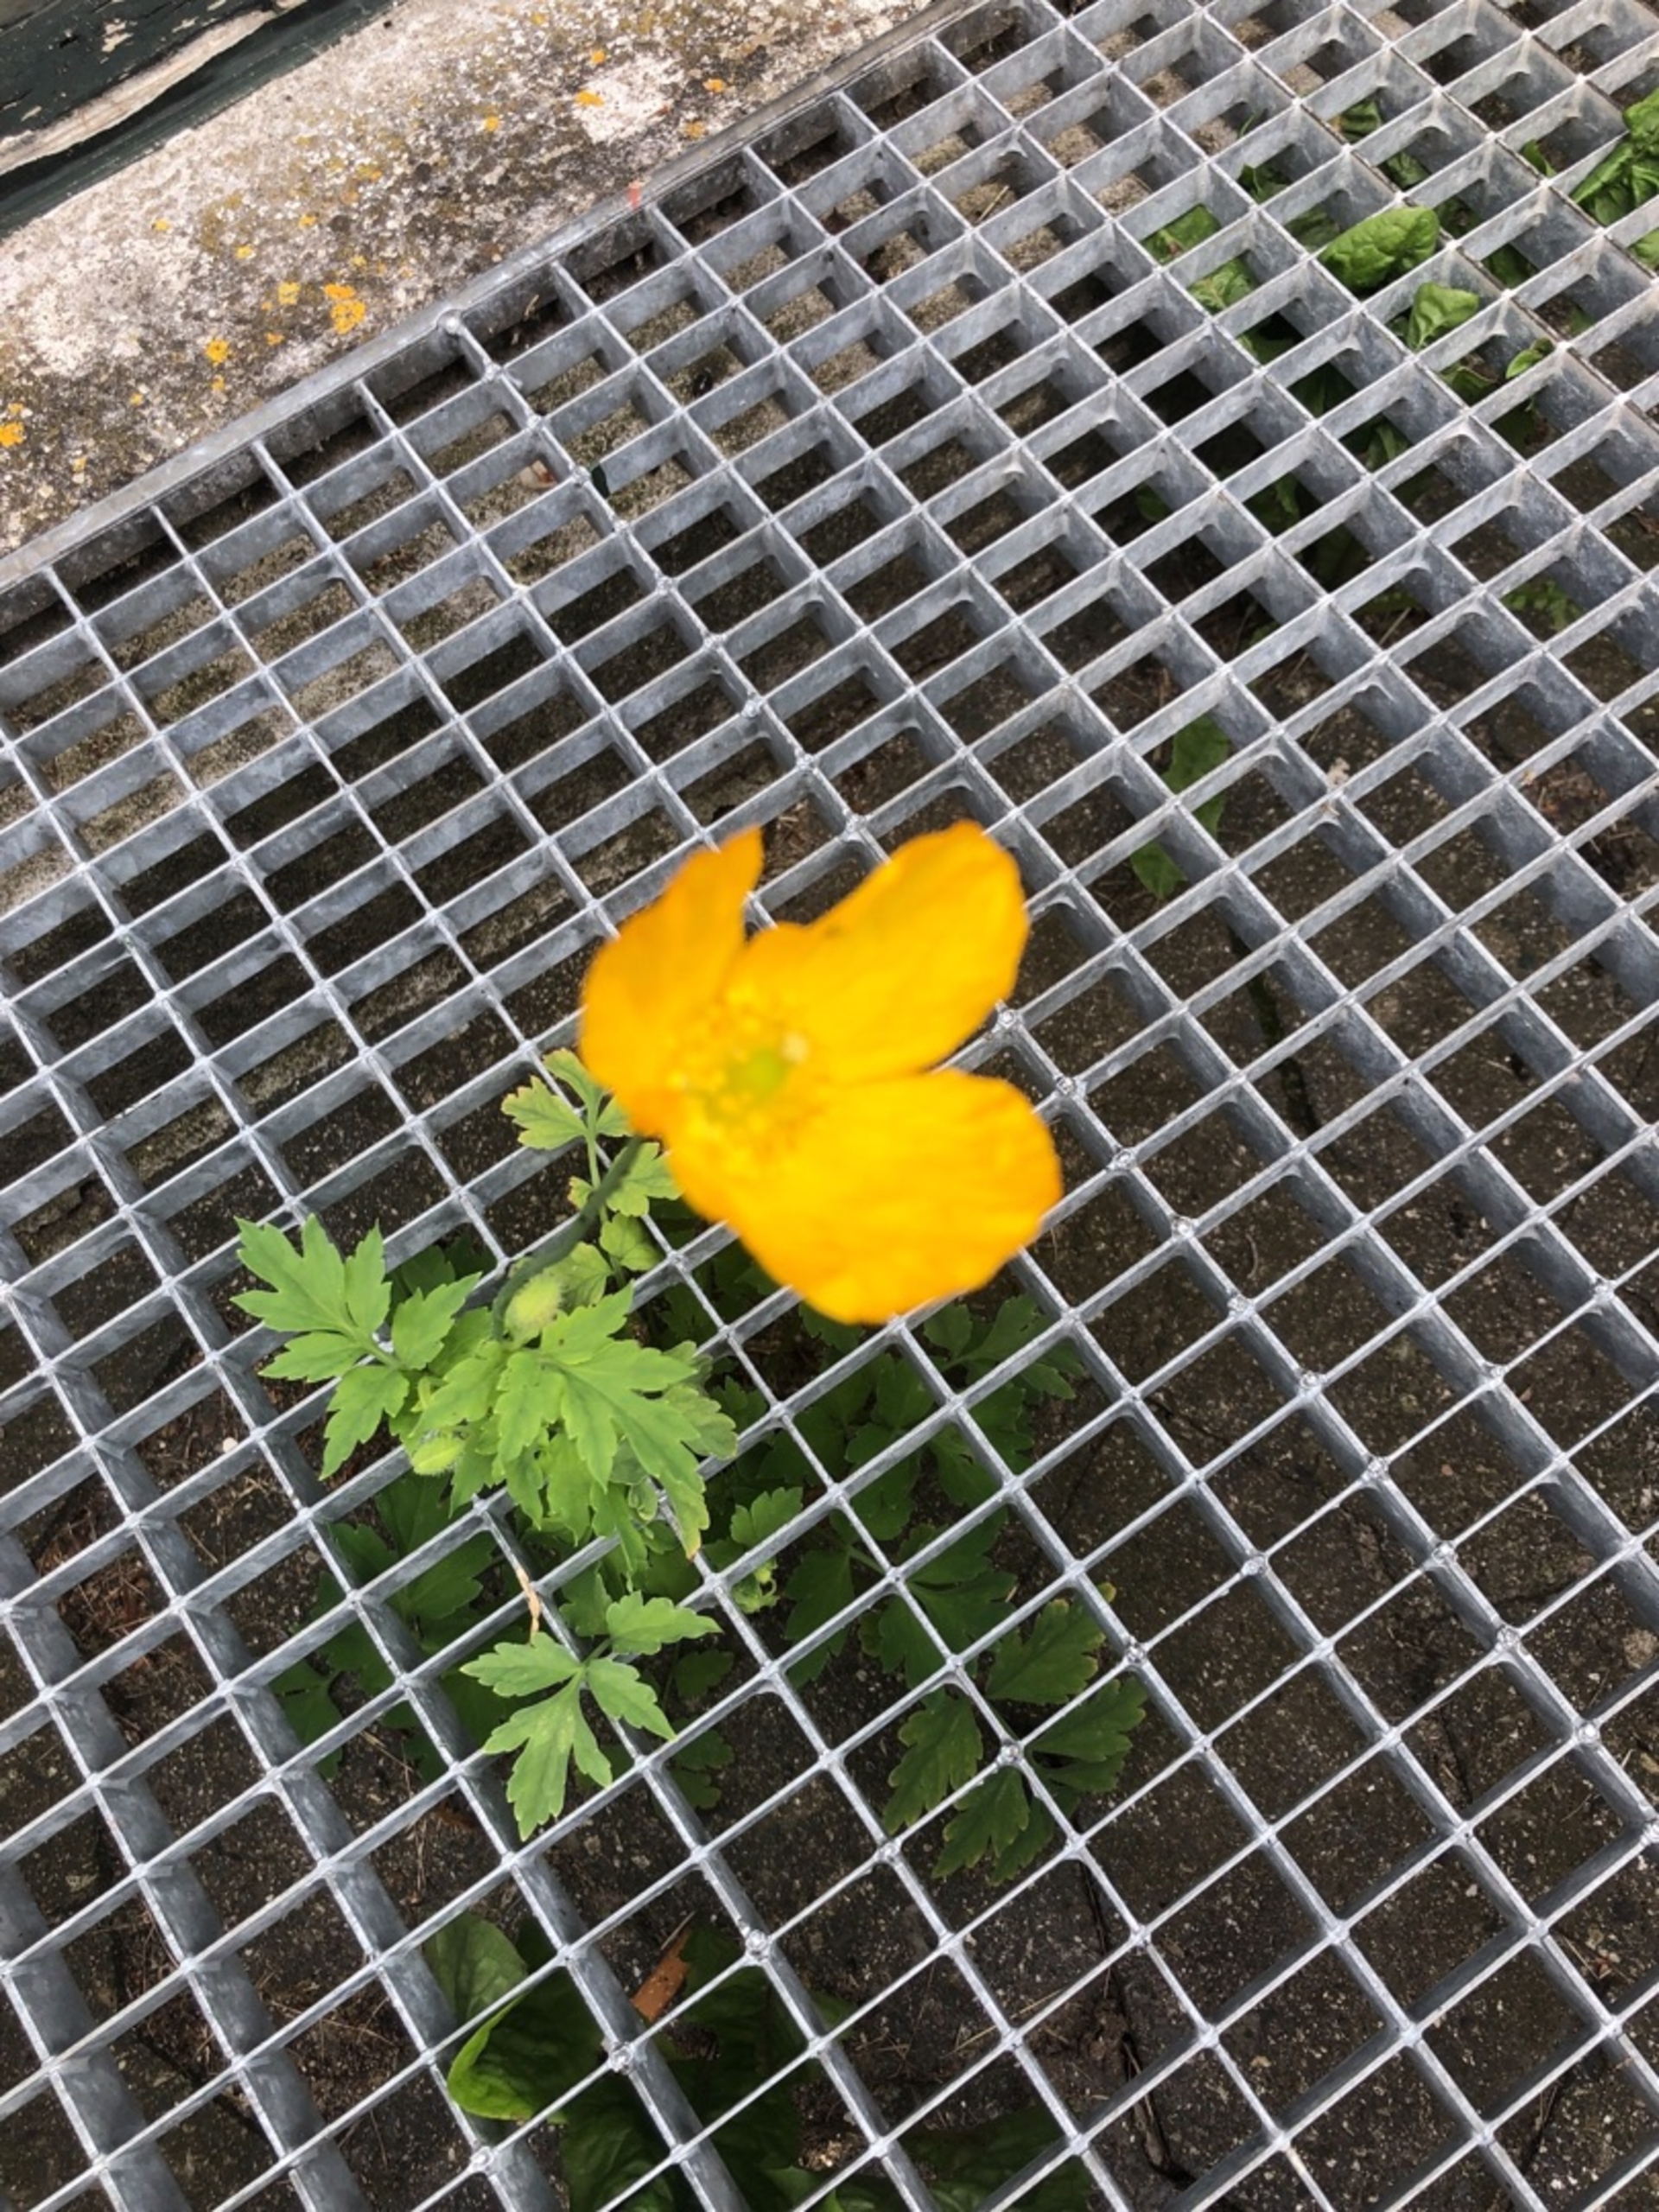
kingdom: Plantae
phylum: Tracheophyta
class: Magnoliopsida
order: Ranunculales
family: Papaveraceae
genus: Papaver
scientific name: Papaver cambricum
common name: Skov-valmue
